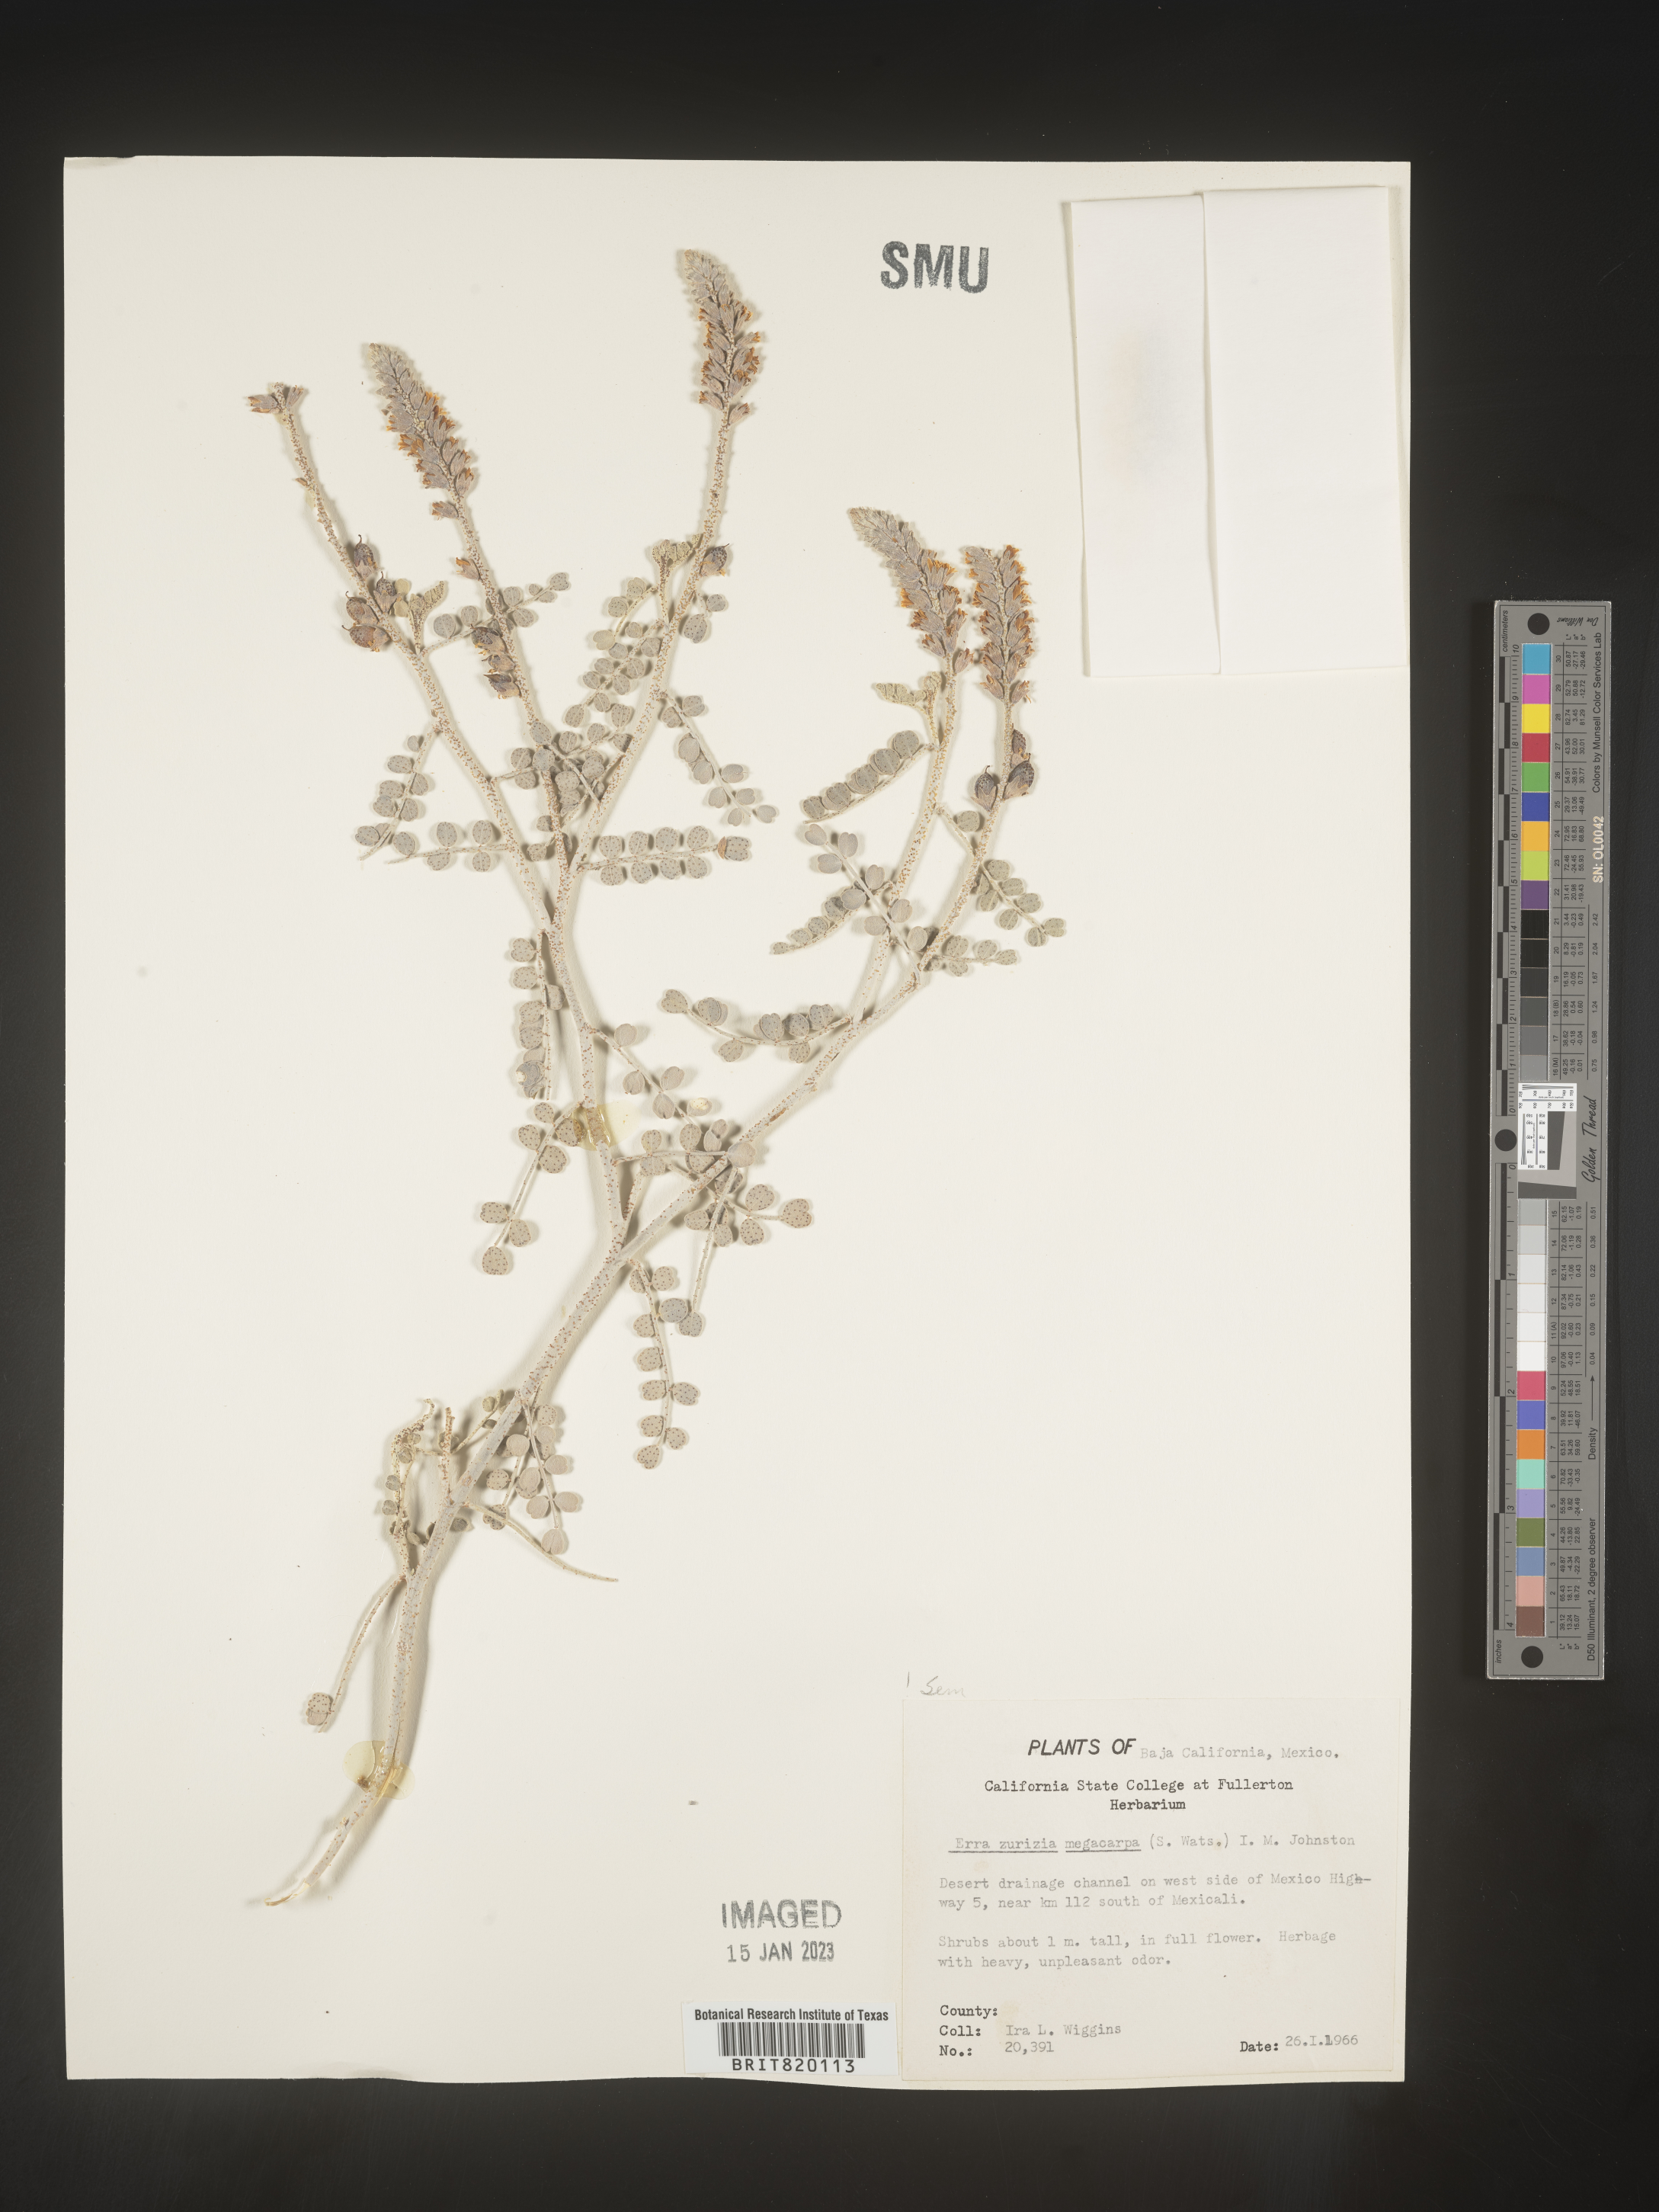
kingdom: Plantae
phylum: Tracheophyta
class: Magnoliopsida
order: Fabales
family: Fabaceae
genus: Errazurizia
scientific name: Errazurizia
